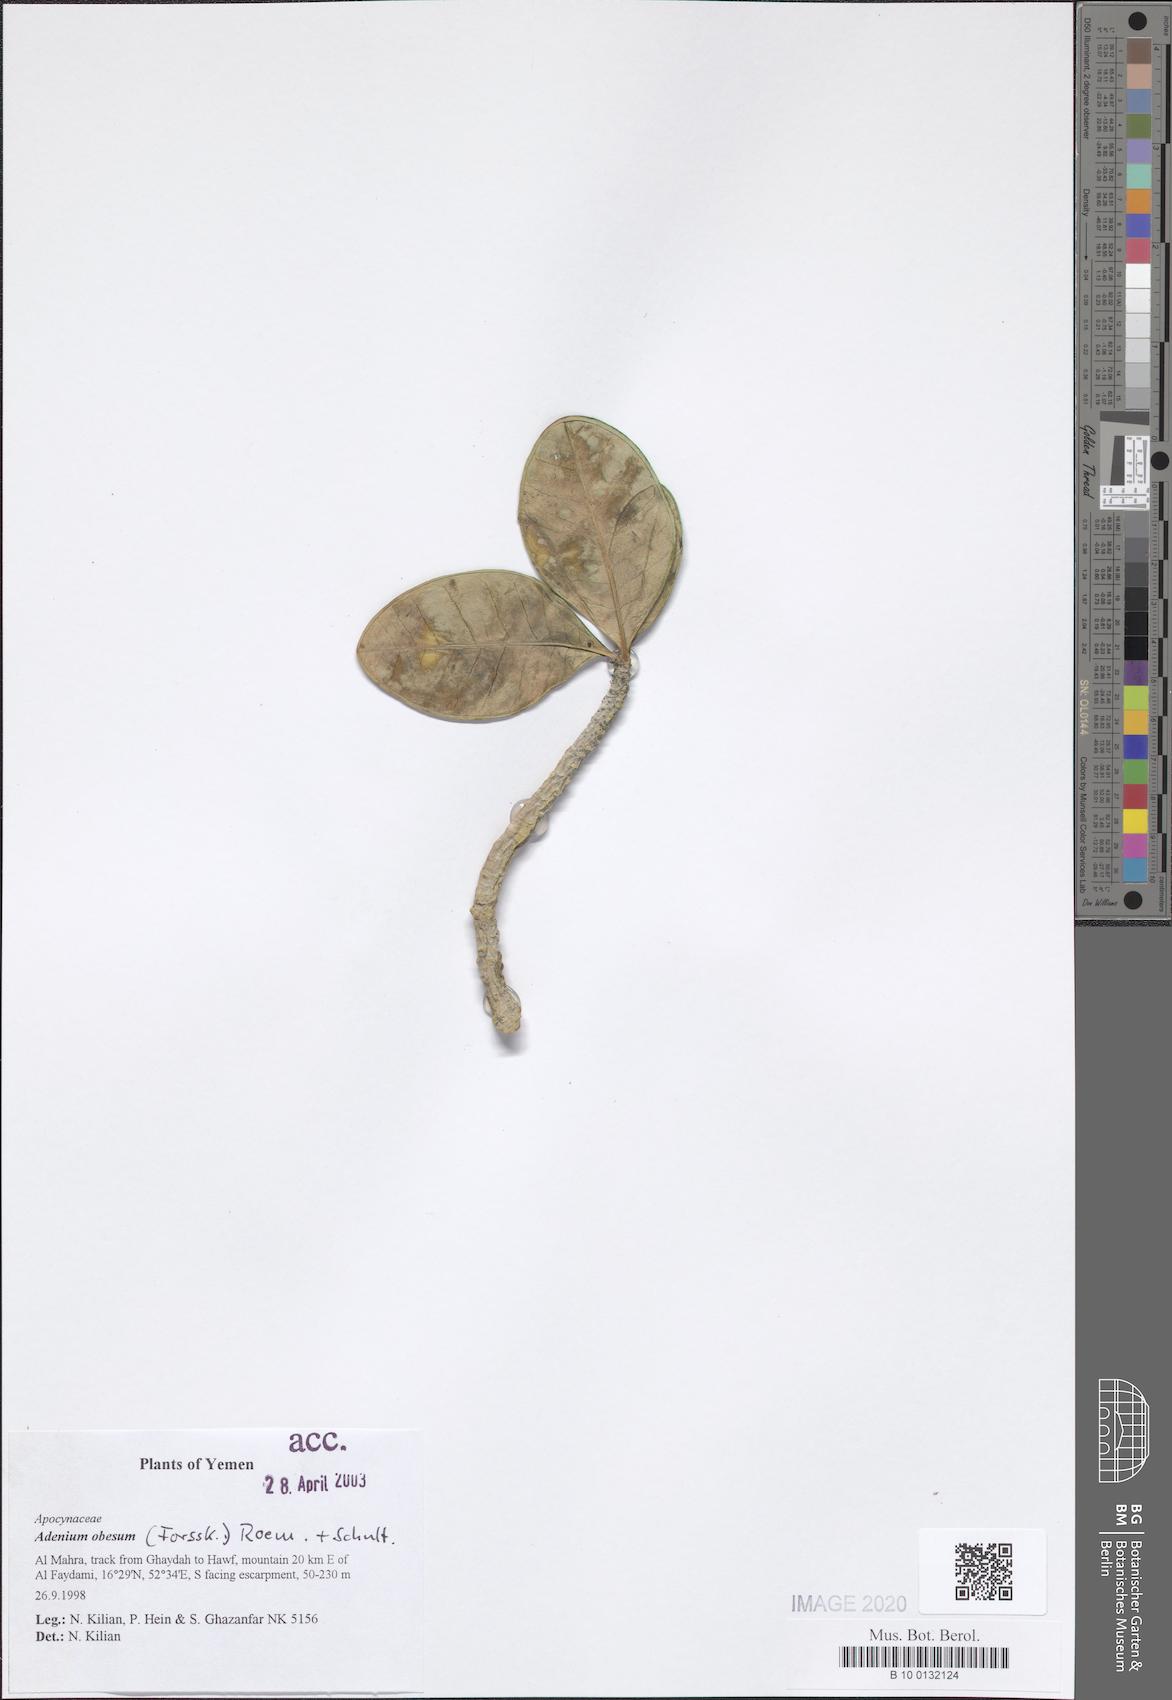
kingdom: Plantae
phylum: Tracheophyta
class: Magnoliopsida
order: Gentianales
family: Apocynaceae
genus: Adenium
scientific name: Adenium obesum
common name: Desert-rose
